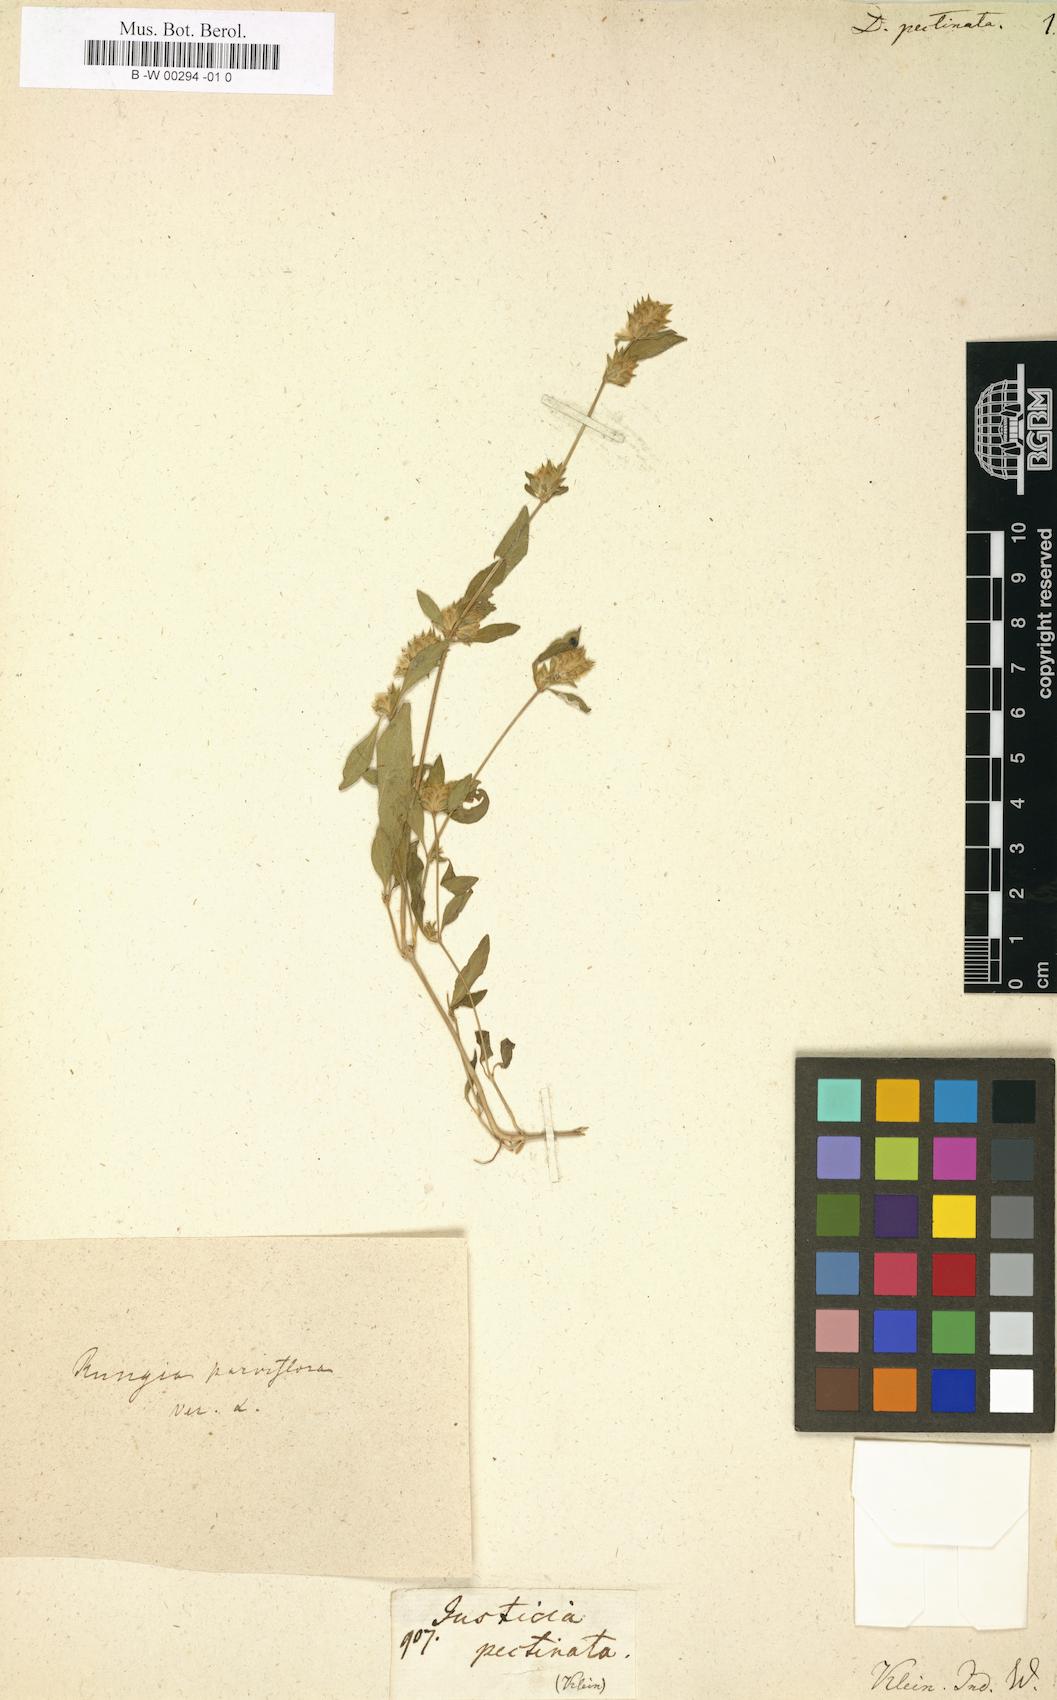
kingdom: Plantae
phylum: Tracheophyta
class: Magnoliopsida
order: Lamiales
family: Acanthaceae
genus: Rungia
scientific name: Rungia pectinata
